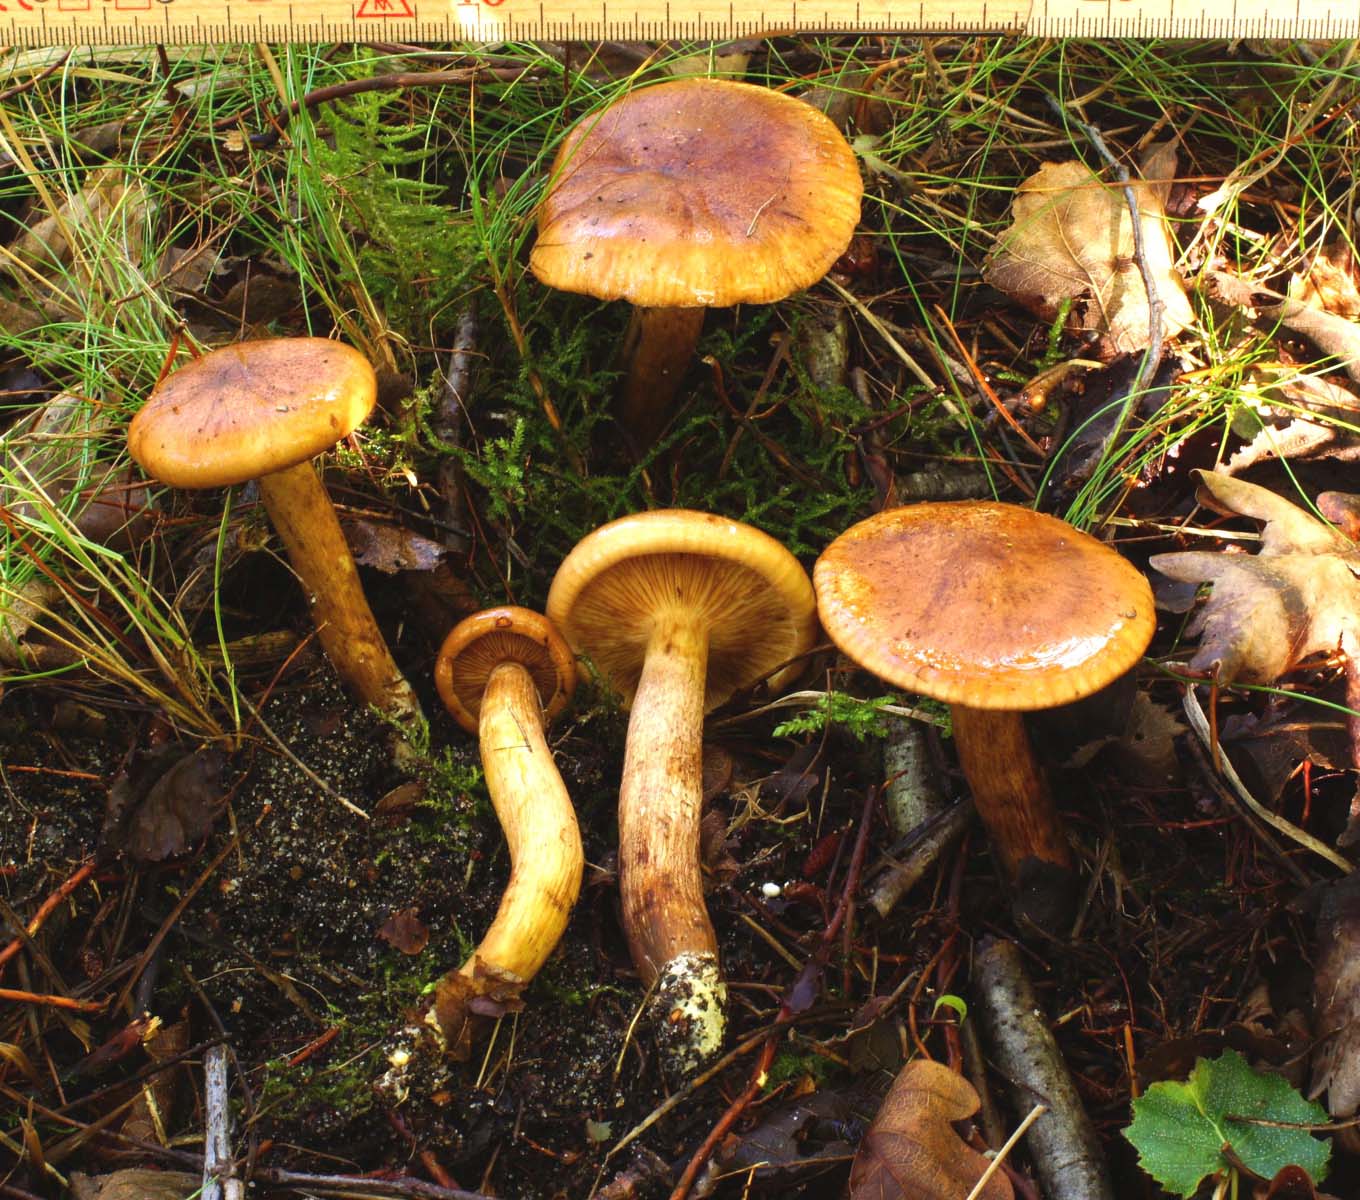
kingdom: Fungi
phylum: Basidiomycota
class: Agaricomycetes
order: Agaricales
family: Tricholomataceae
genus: Tricholoma
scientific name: Tricholoma fulvum
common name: birke-ridderhat
